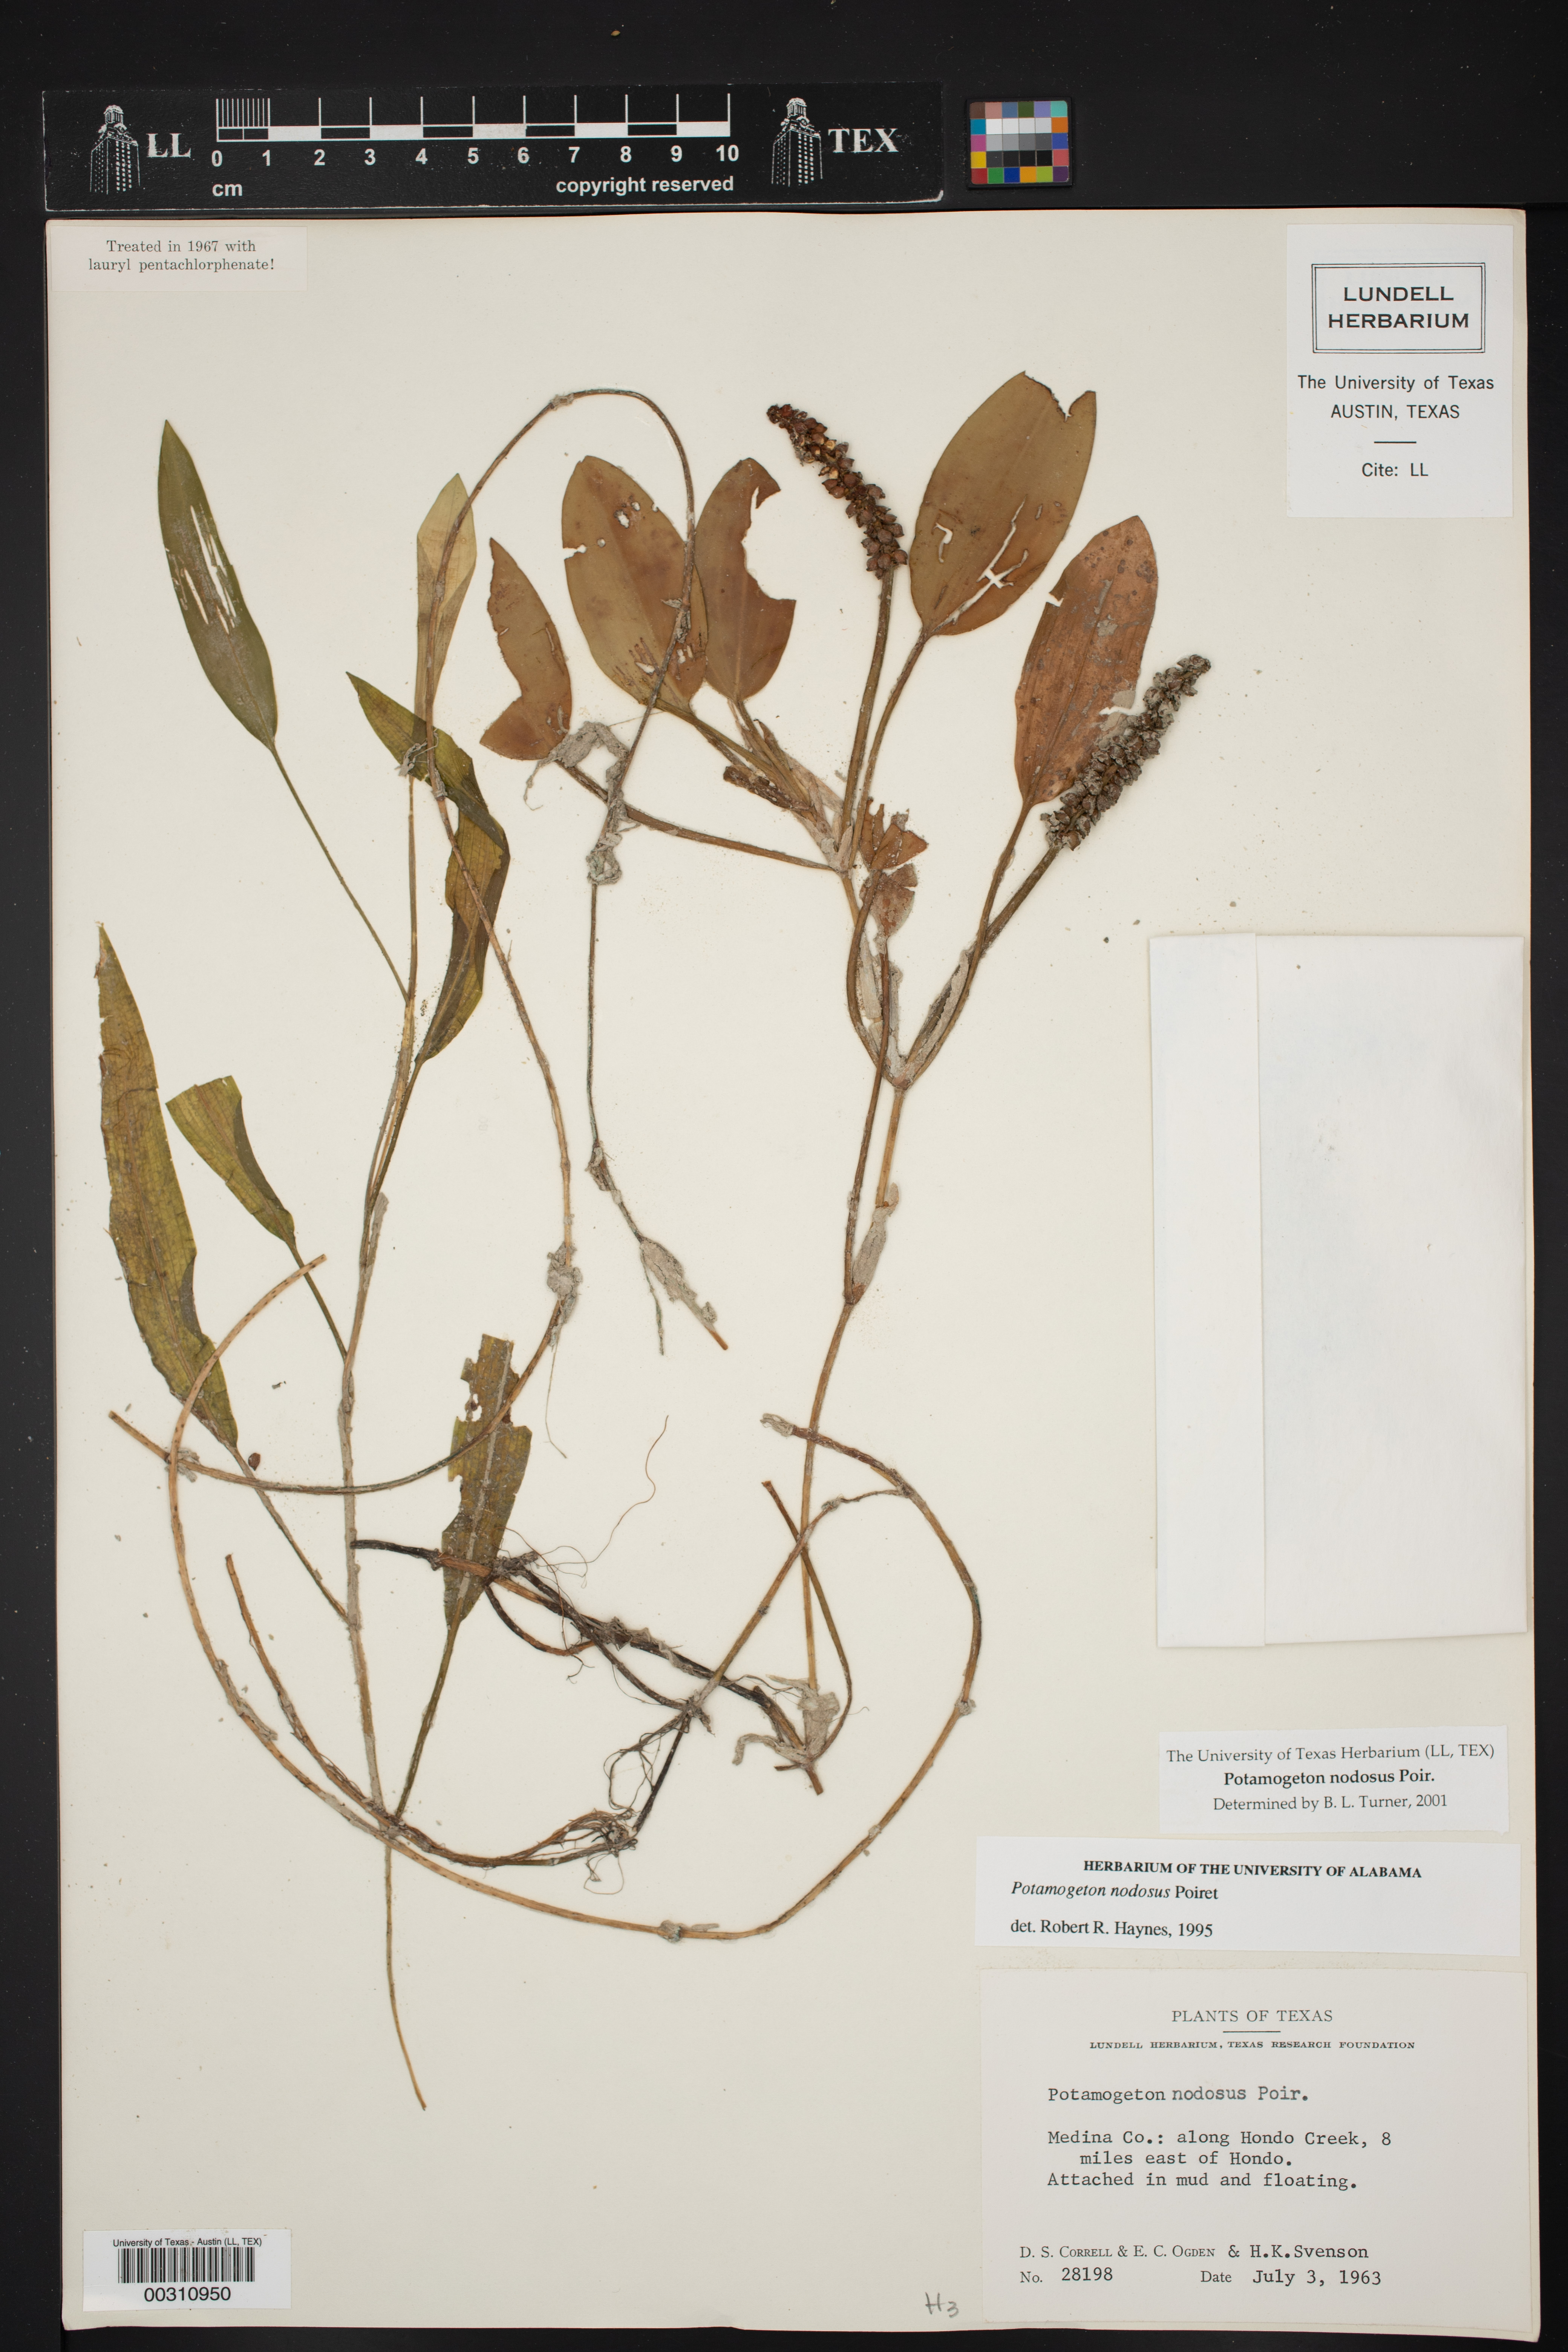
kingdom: Plantae
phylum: Tracheophyta
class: Liliopsida
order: Alismatales
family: Potamogetonaceae
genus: Potamogeton
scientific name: Potamogeton nodosus
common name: Loddon pondweed
